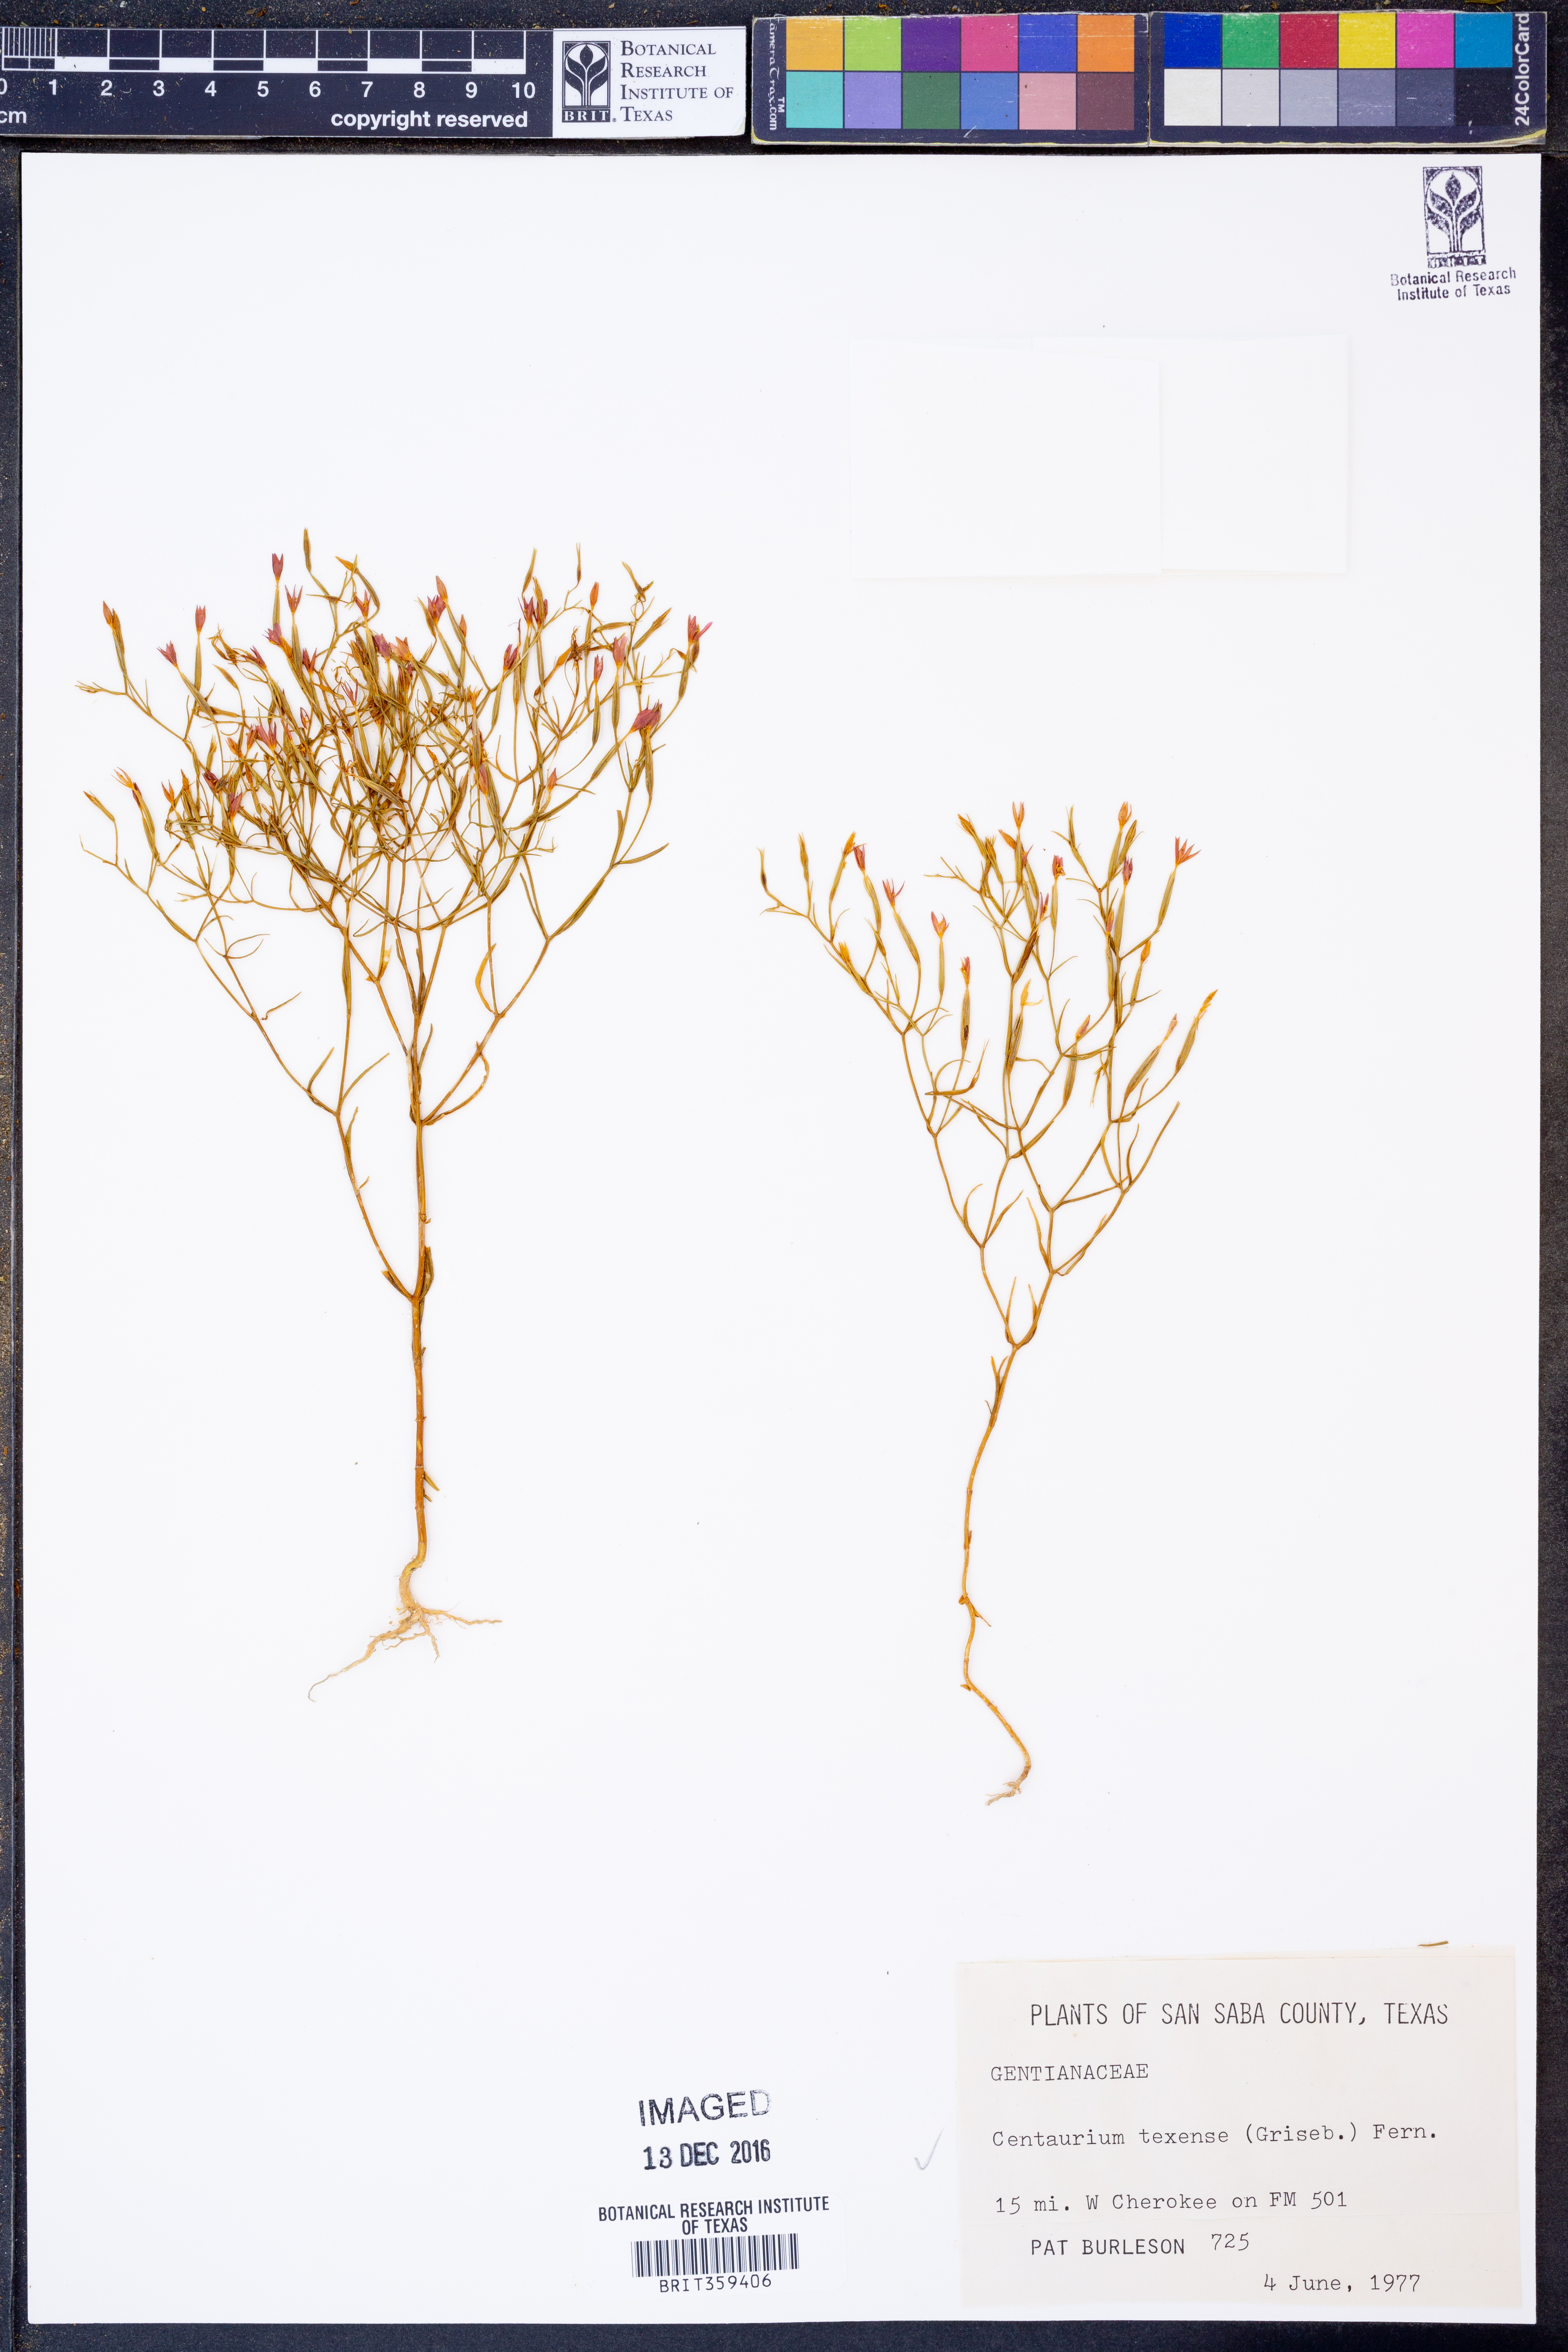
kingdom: Plantae
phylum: Tracheophyta
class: Magnoliopsida
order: Gentianales
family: Gentianaceae
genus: Zeltnera
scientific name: Zeltnera texensis
